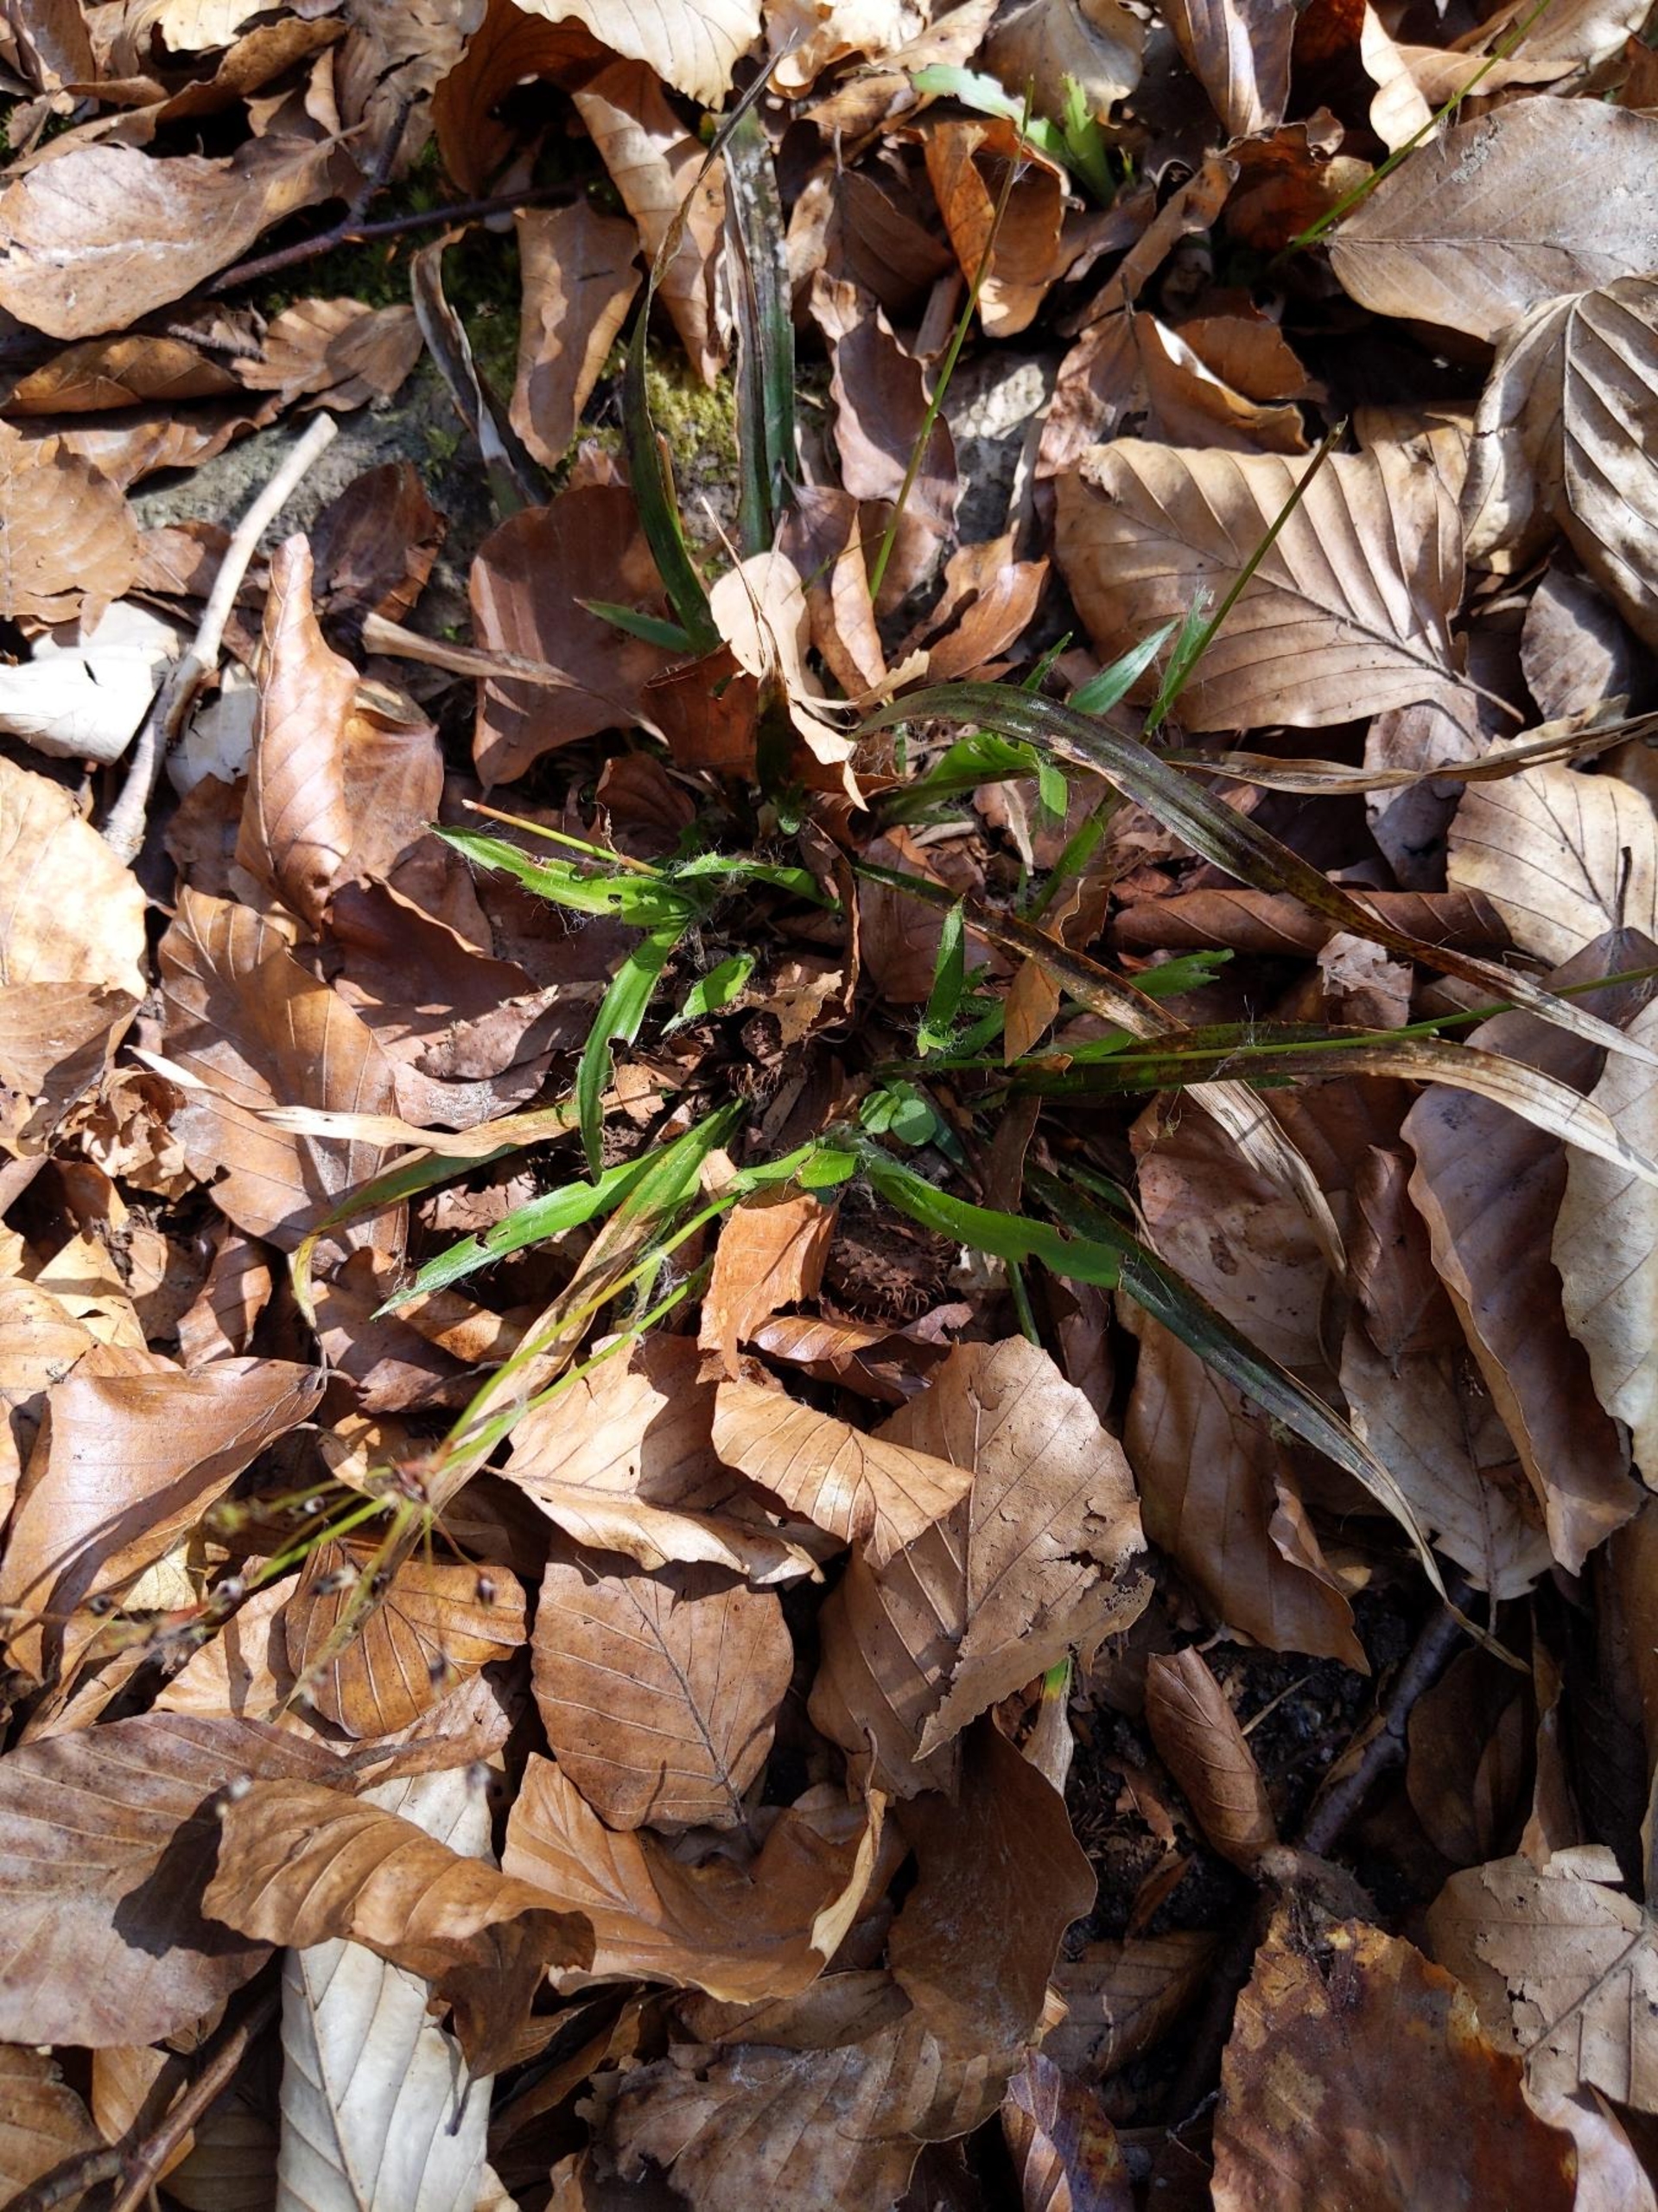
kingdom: Plantae
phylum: Tracheophyta
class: Liliopsida
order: Poales
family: Juncaceae
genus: Luzula
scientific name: Luzula pilosa
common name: Håret frytle
